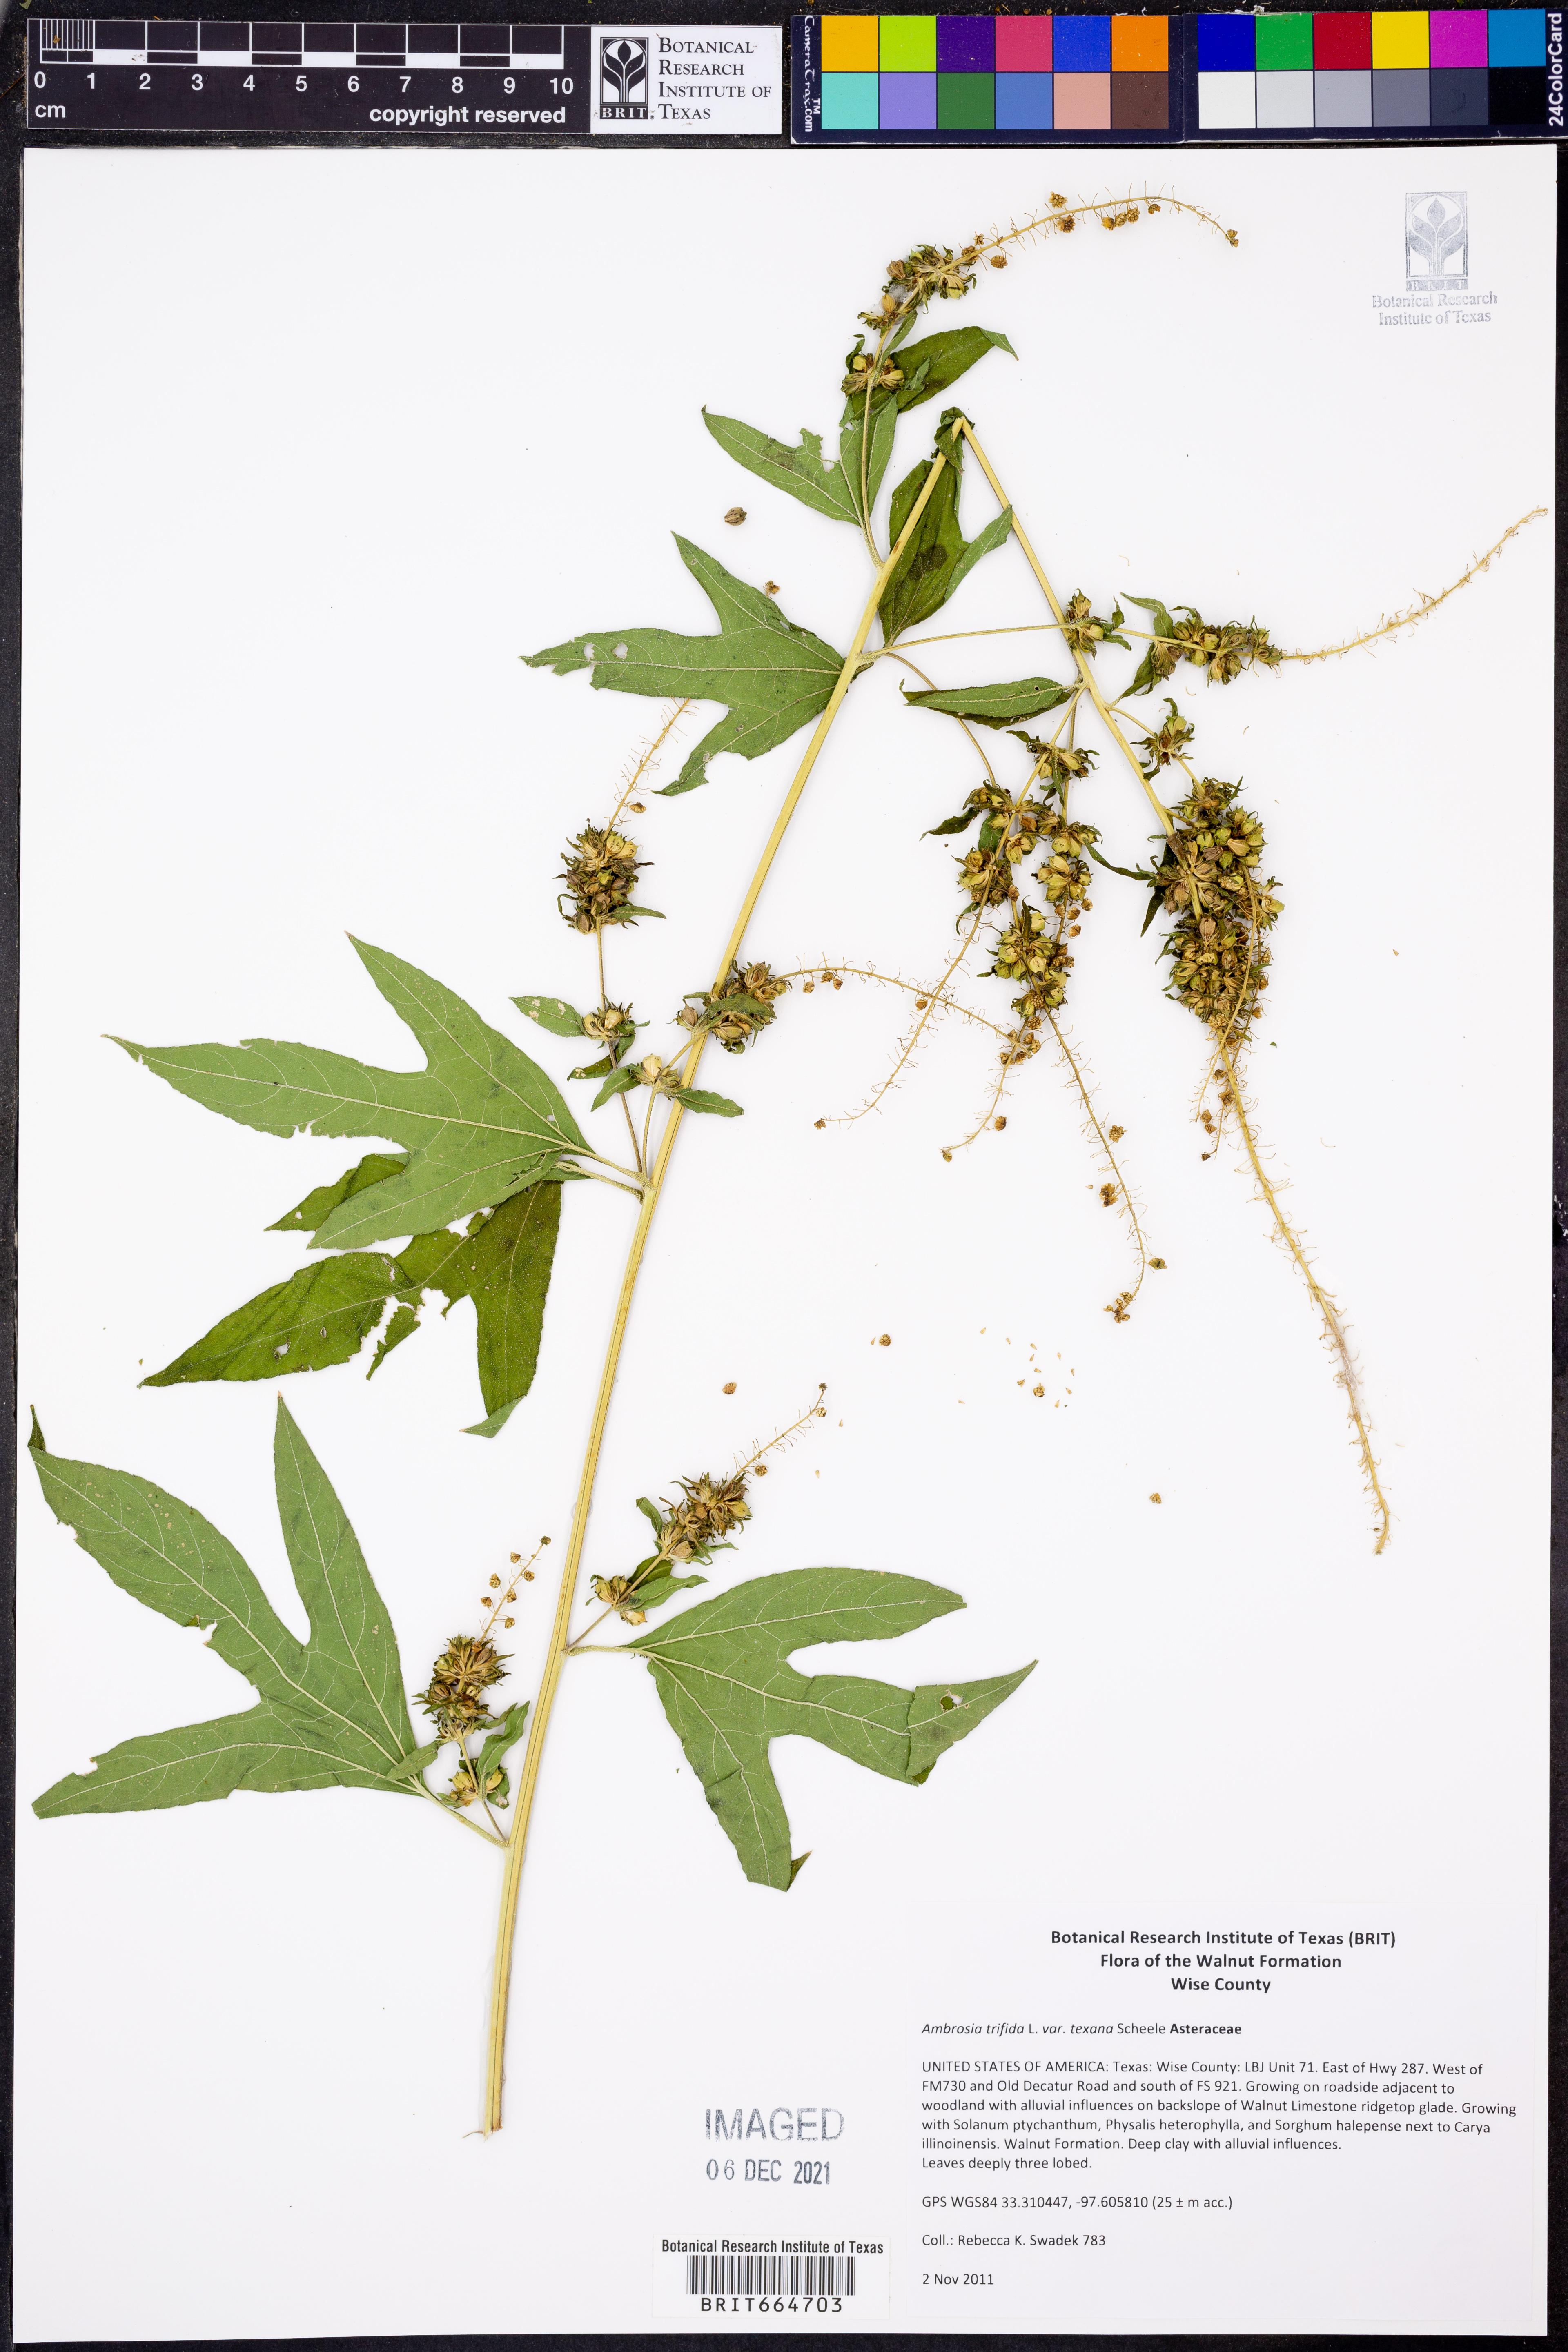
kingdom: Plantae
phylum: Tracheophyta
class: Magnoliopsida
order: Asterales
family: Asteraceae
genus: Ambrosia
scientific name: Ambrosia trifida
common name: Giant ragweed
